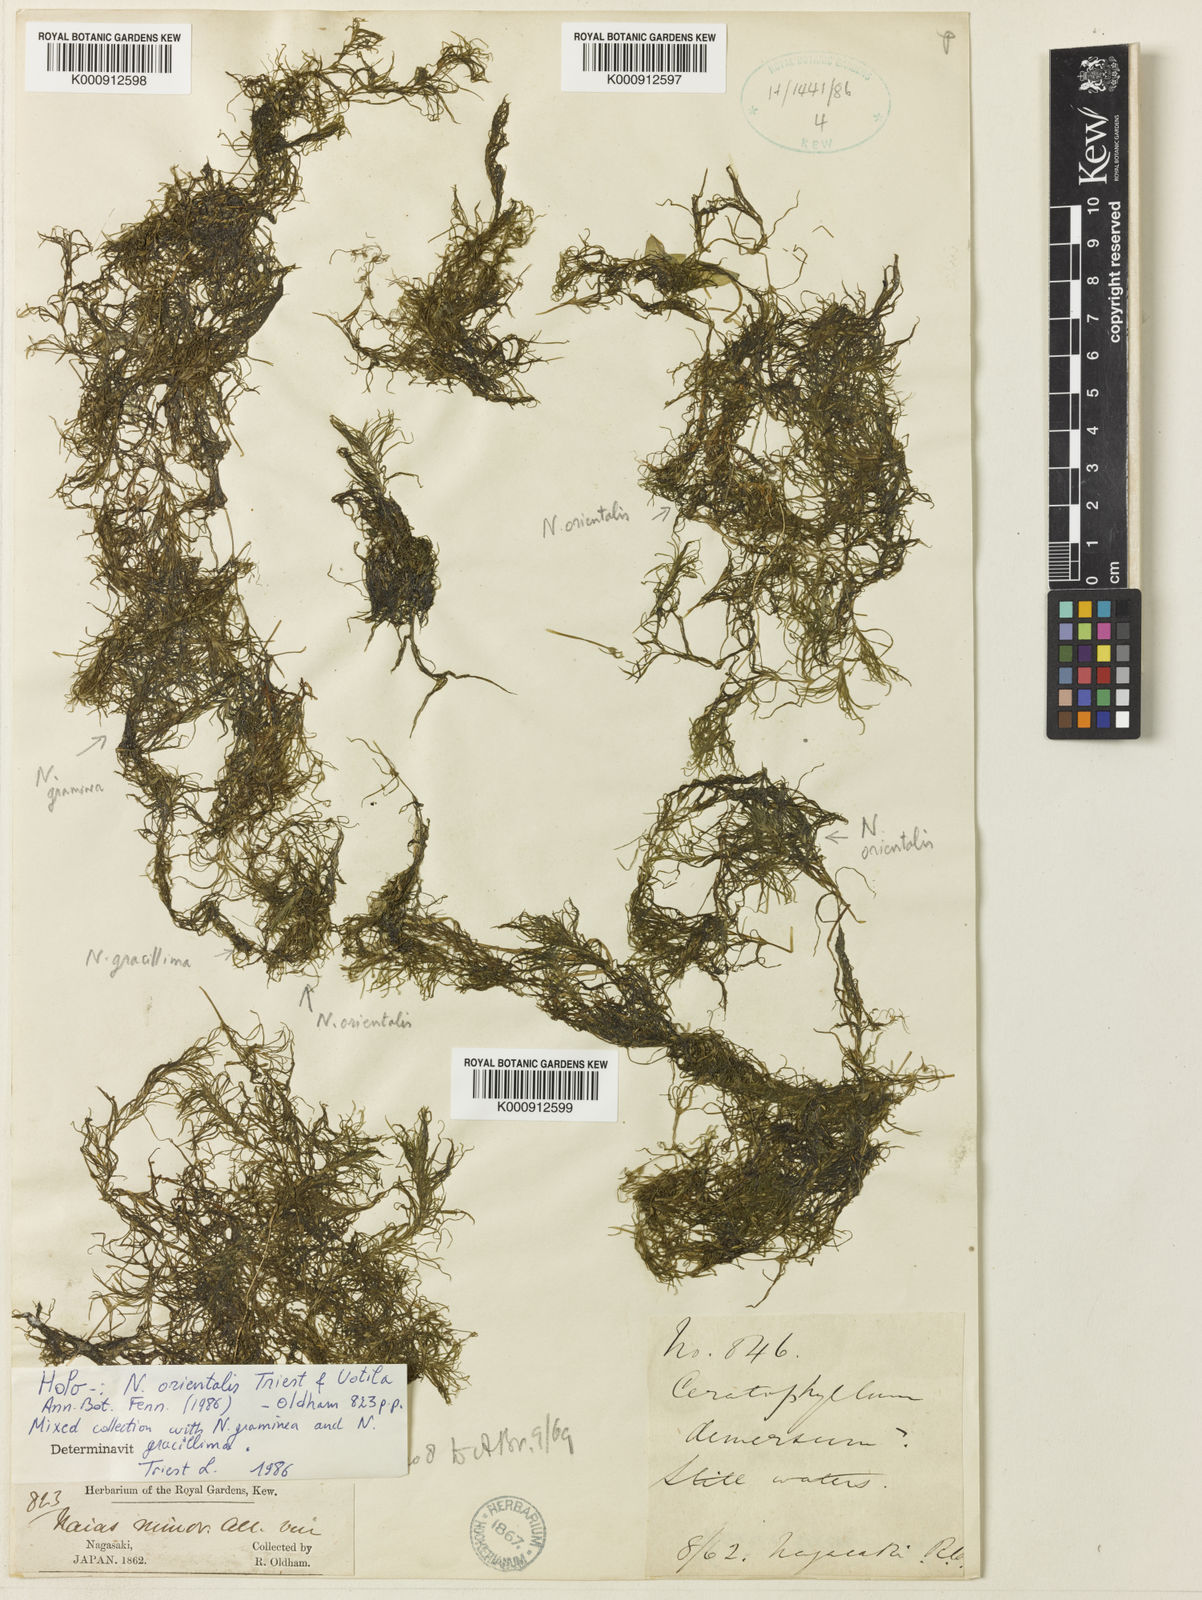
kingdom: Plantae
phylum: Tracheophyta
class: Liliopsida
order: Alismatales
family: Hydrocharitaceae
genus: Najas
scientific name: Najas chinensis
